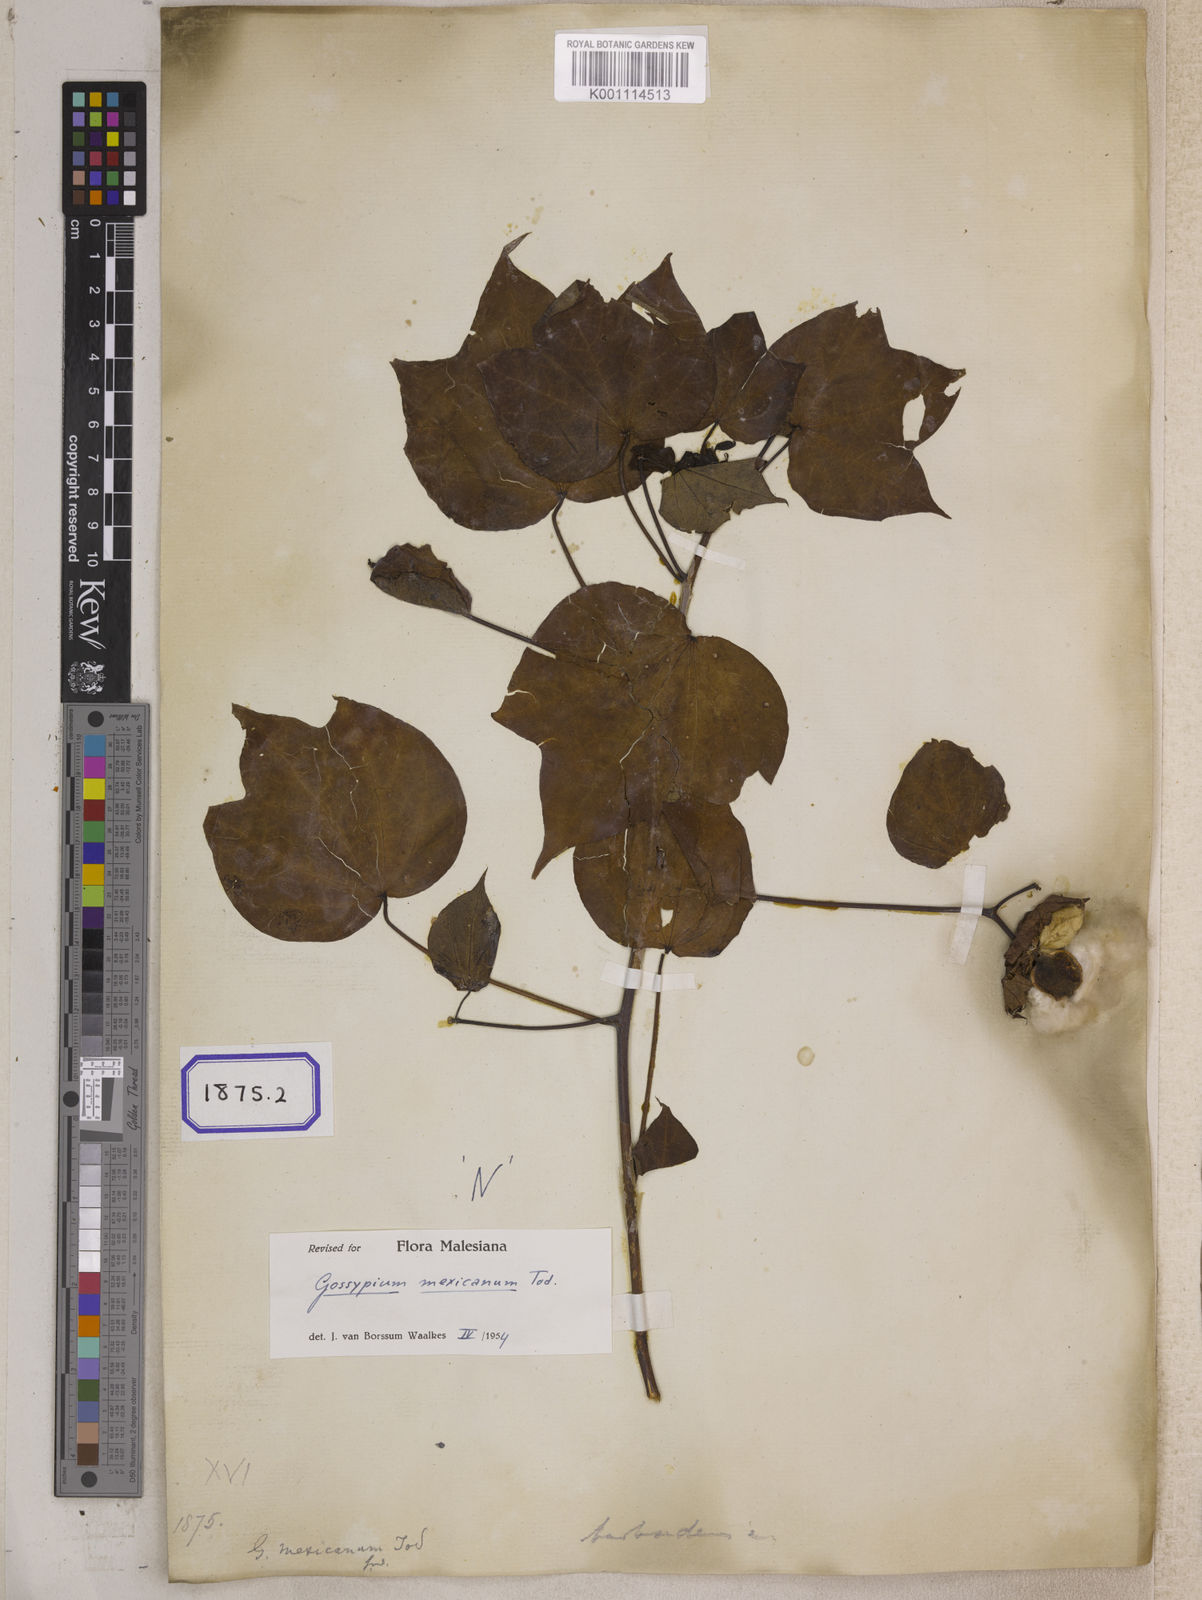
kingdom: Plantae
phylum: Tracheophyta
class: Magnoliopsida
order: Malvales
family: Malvaceae
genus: Gossypium
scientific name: Gossypium barbadense
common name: Creole cotton
